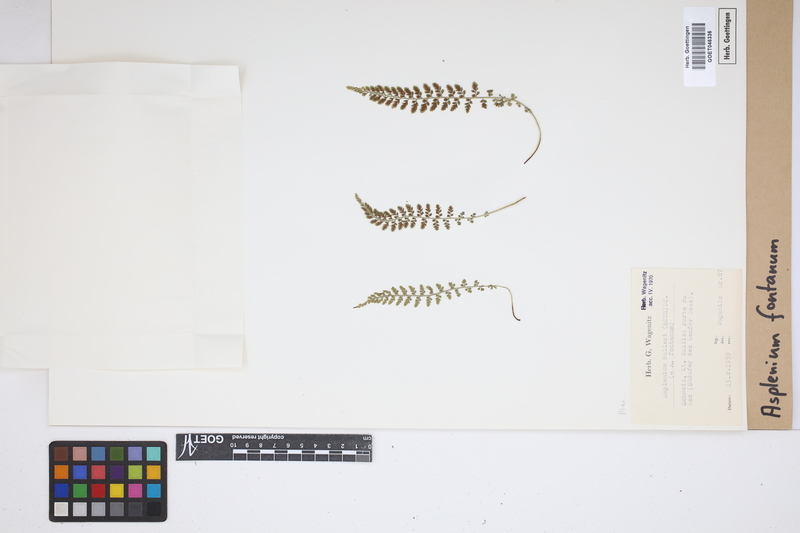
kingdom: Plantae
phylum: Tracheophyta
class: Polypodiopsida
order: Polypodiales
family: Aspleniaceae
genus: Asplenium
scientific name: Asplenium fontanum
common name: Fountain spleenwort
